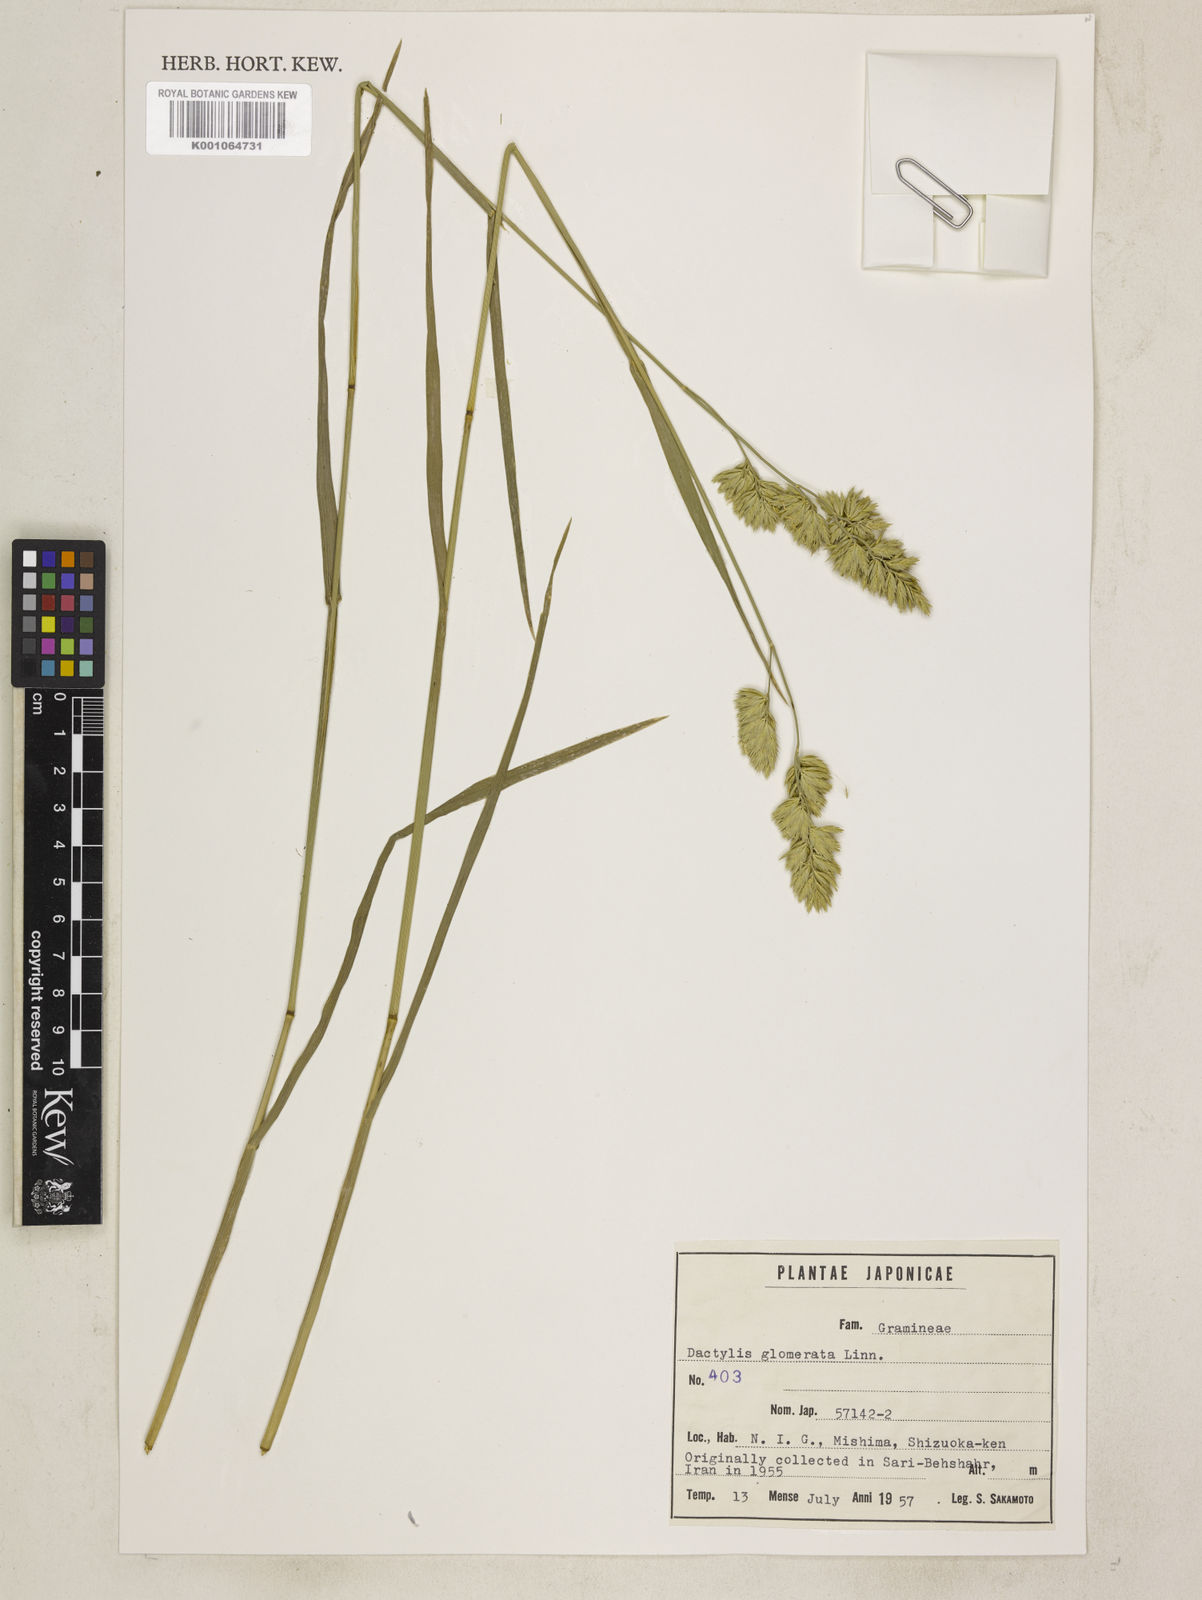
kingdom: Plantae
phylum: Tracheophyta
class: Liliopsida
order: Poales
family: Poaceae
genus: Dactylis
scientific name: Dactylis glomerata
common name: Orchardgrass
